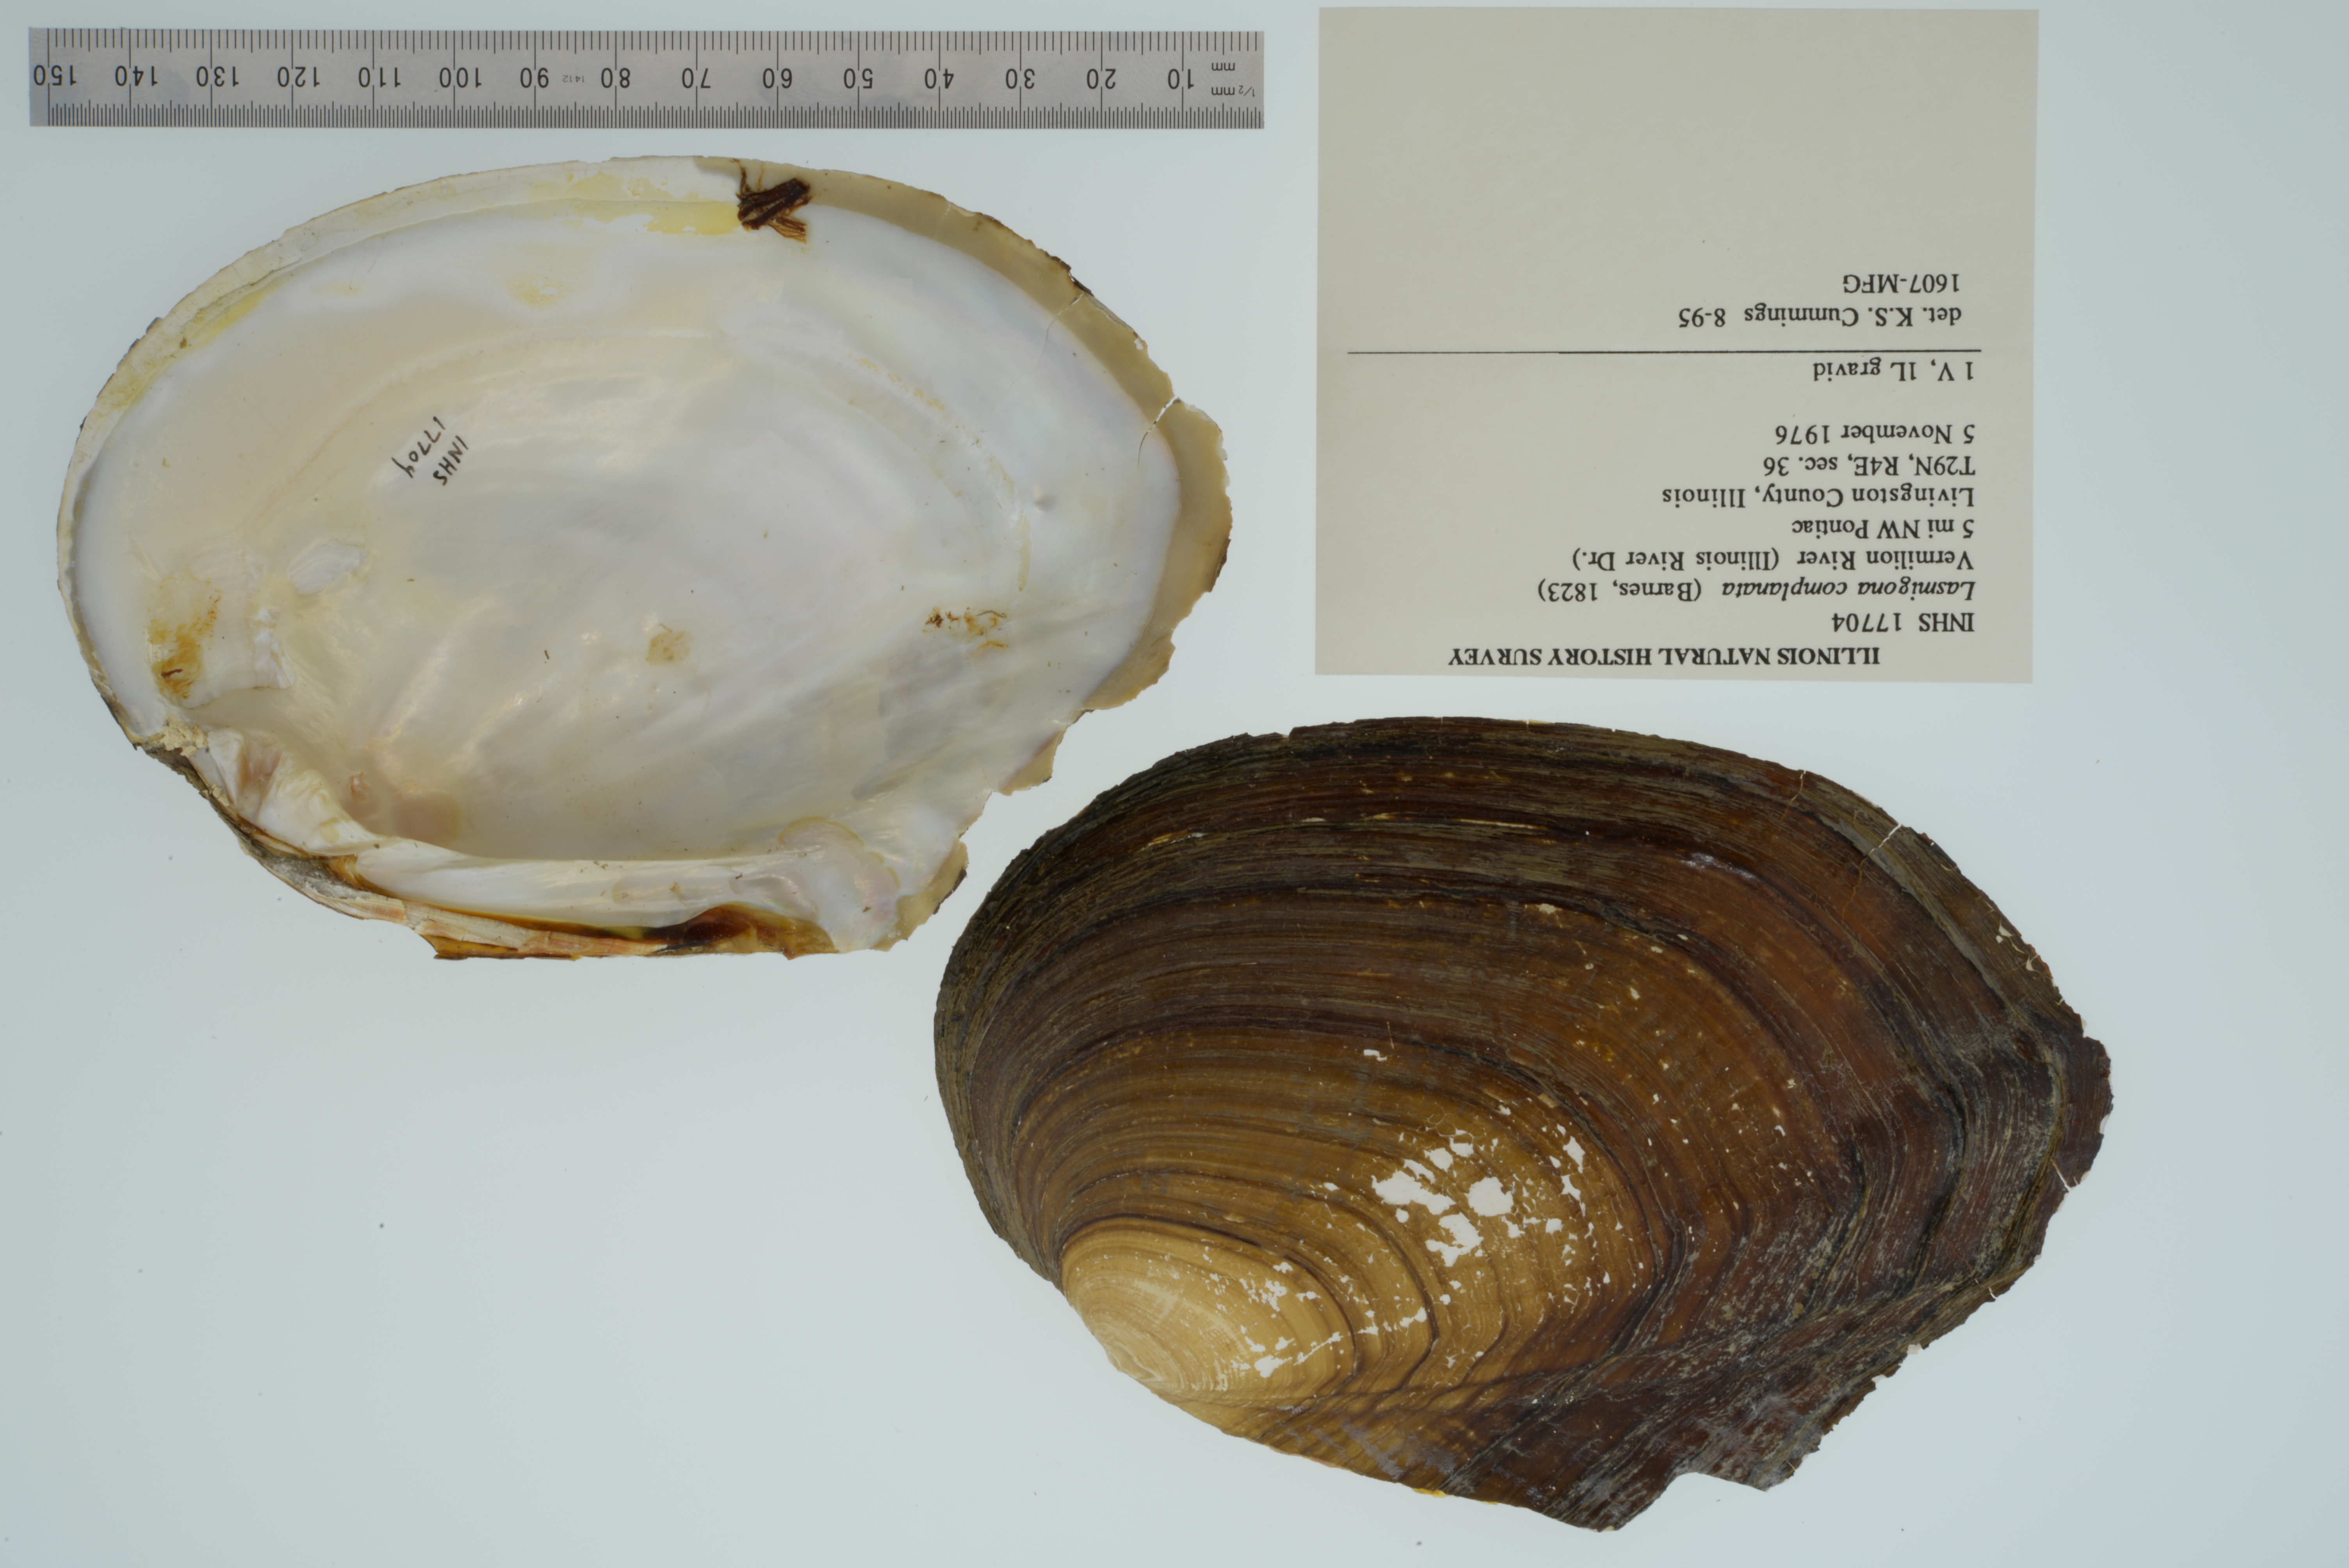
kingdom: Animalia
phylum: Mollusca
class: Bivalvia
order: Unionida
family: Unionidae
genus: Lasmigona
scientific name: Lasmigona complanata
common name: White heelsplitter
